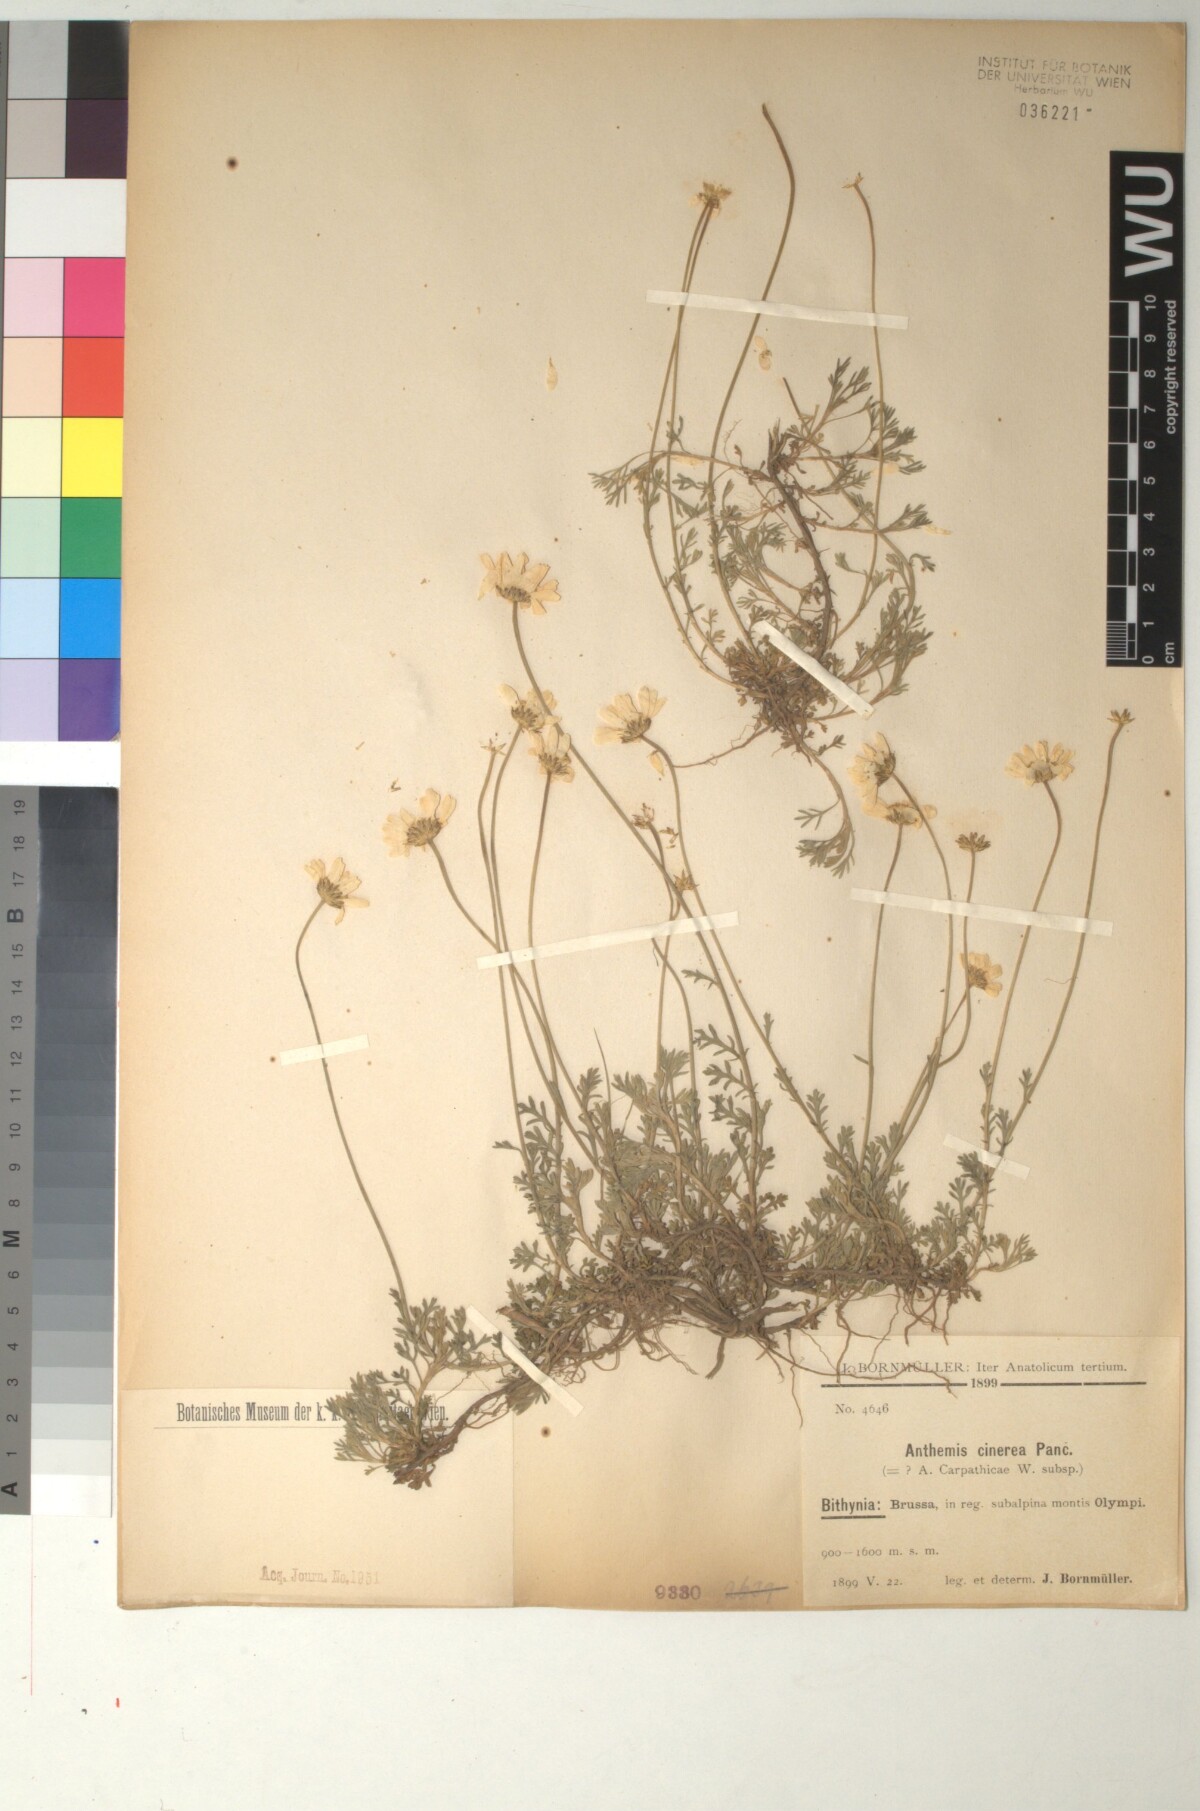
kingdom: Plantae
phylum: Tracheophyta
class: Magnoliopsida
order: Asterales
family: Asteraceae
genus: Anthemis
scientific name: Anthemis cretica
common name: Mountain dog-daisy
